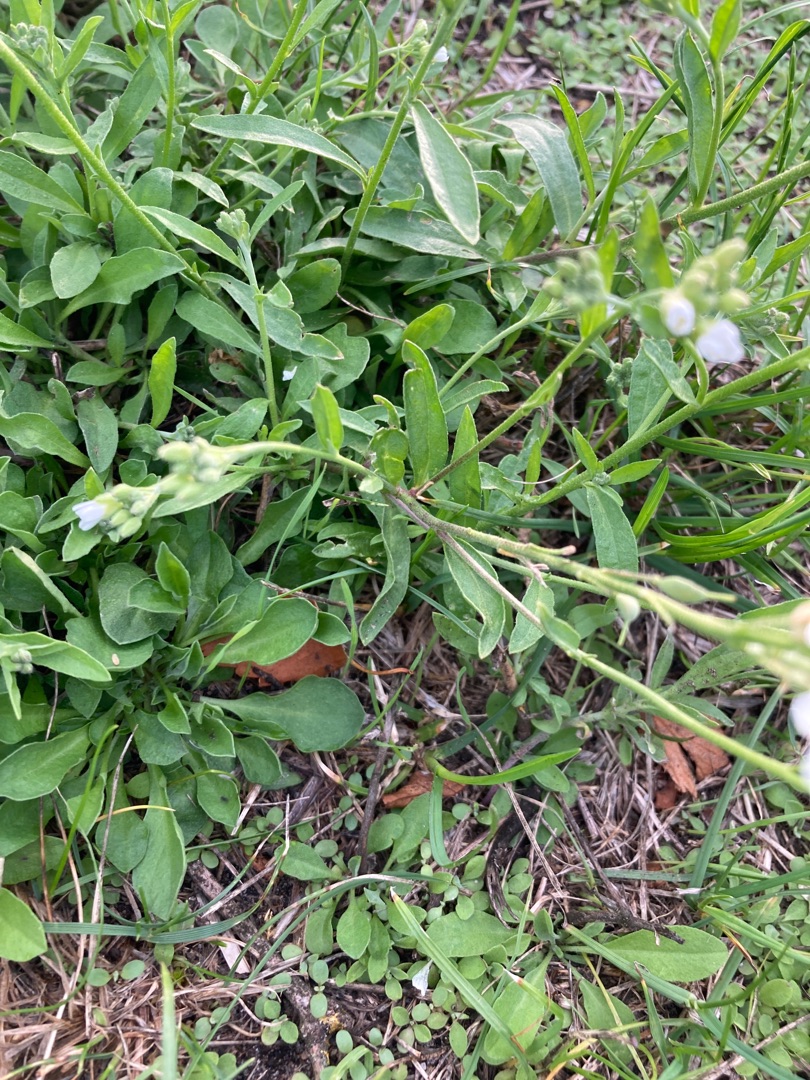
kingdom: Plantae
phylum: Tracheophyta
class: Magnoliopsida
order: Brassicales
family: Brassicaceae
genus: Berteroa
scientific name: Berteroa incana
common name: Kløvplade
